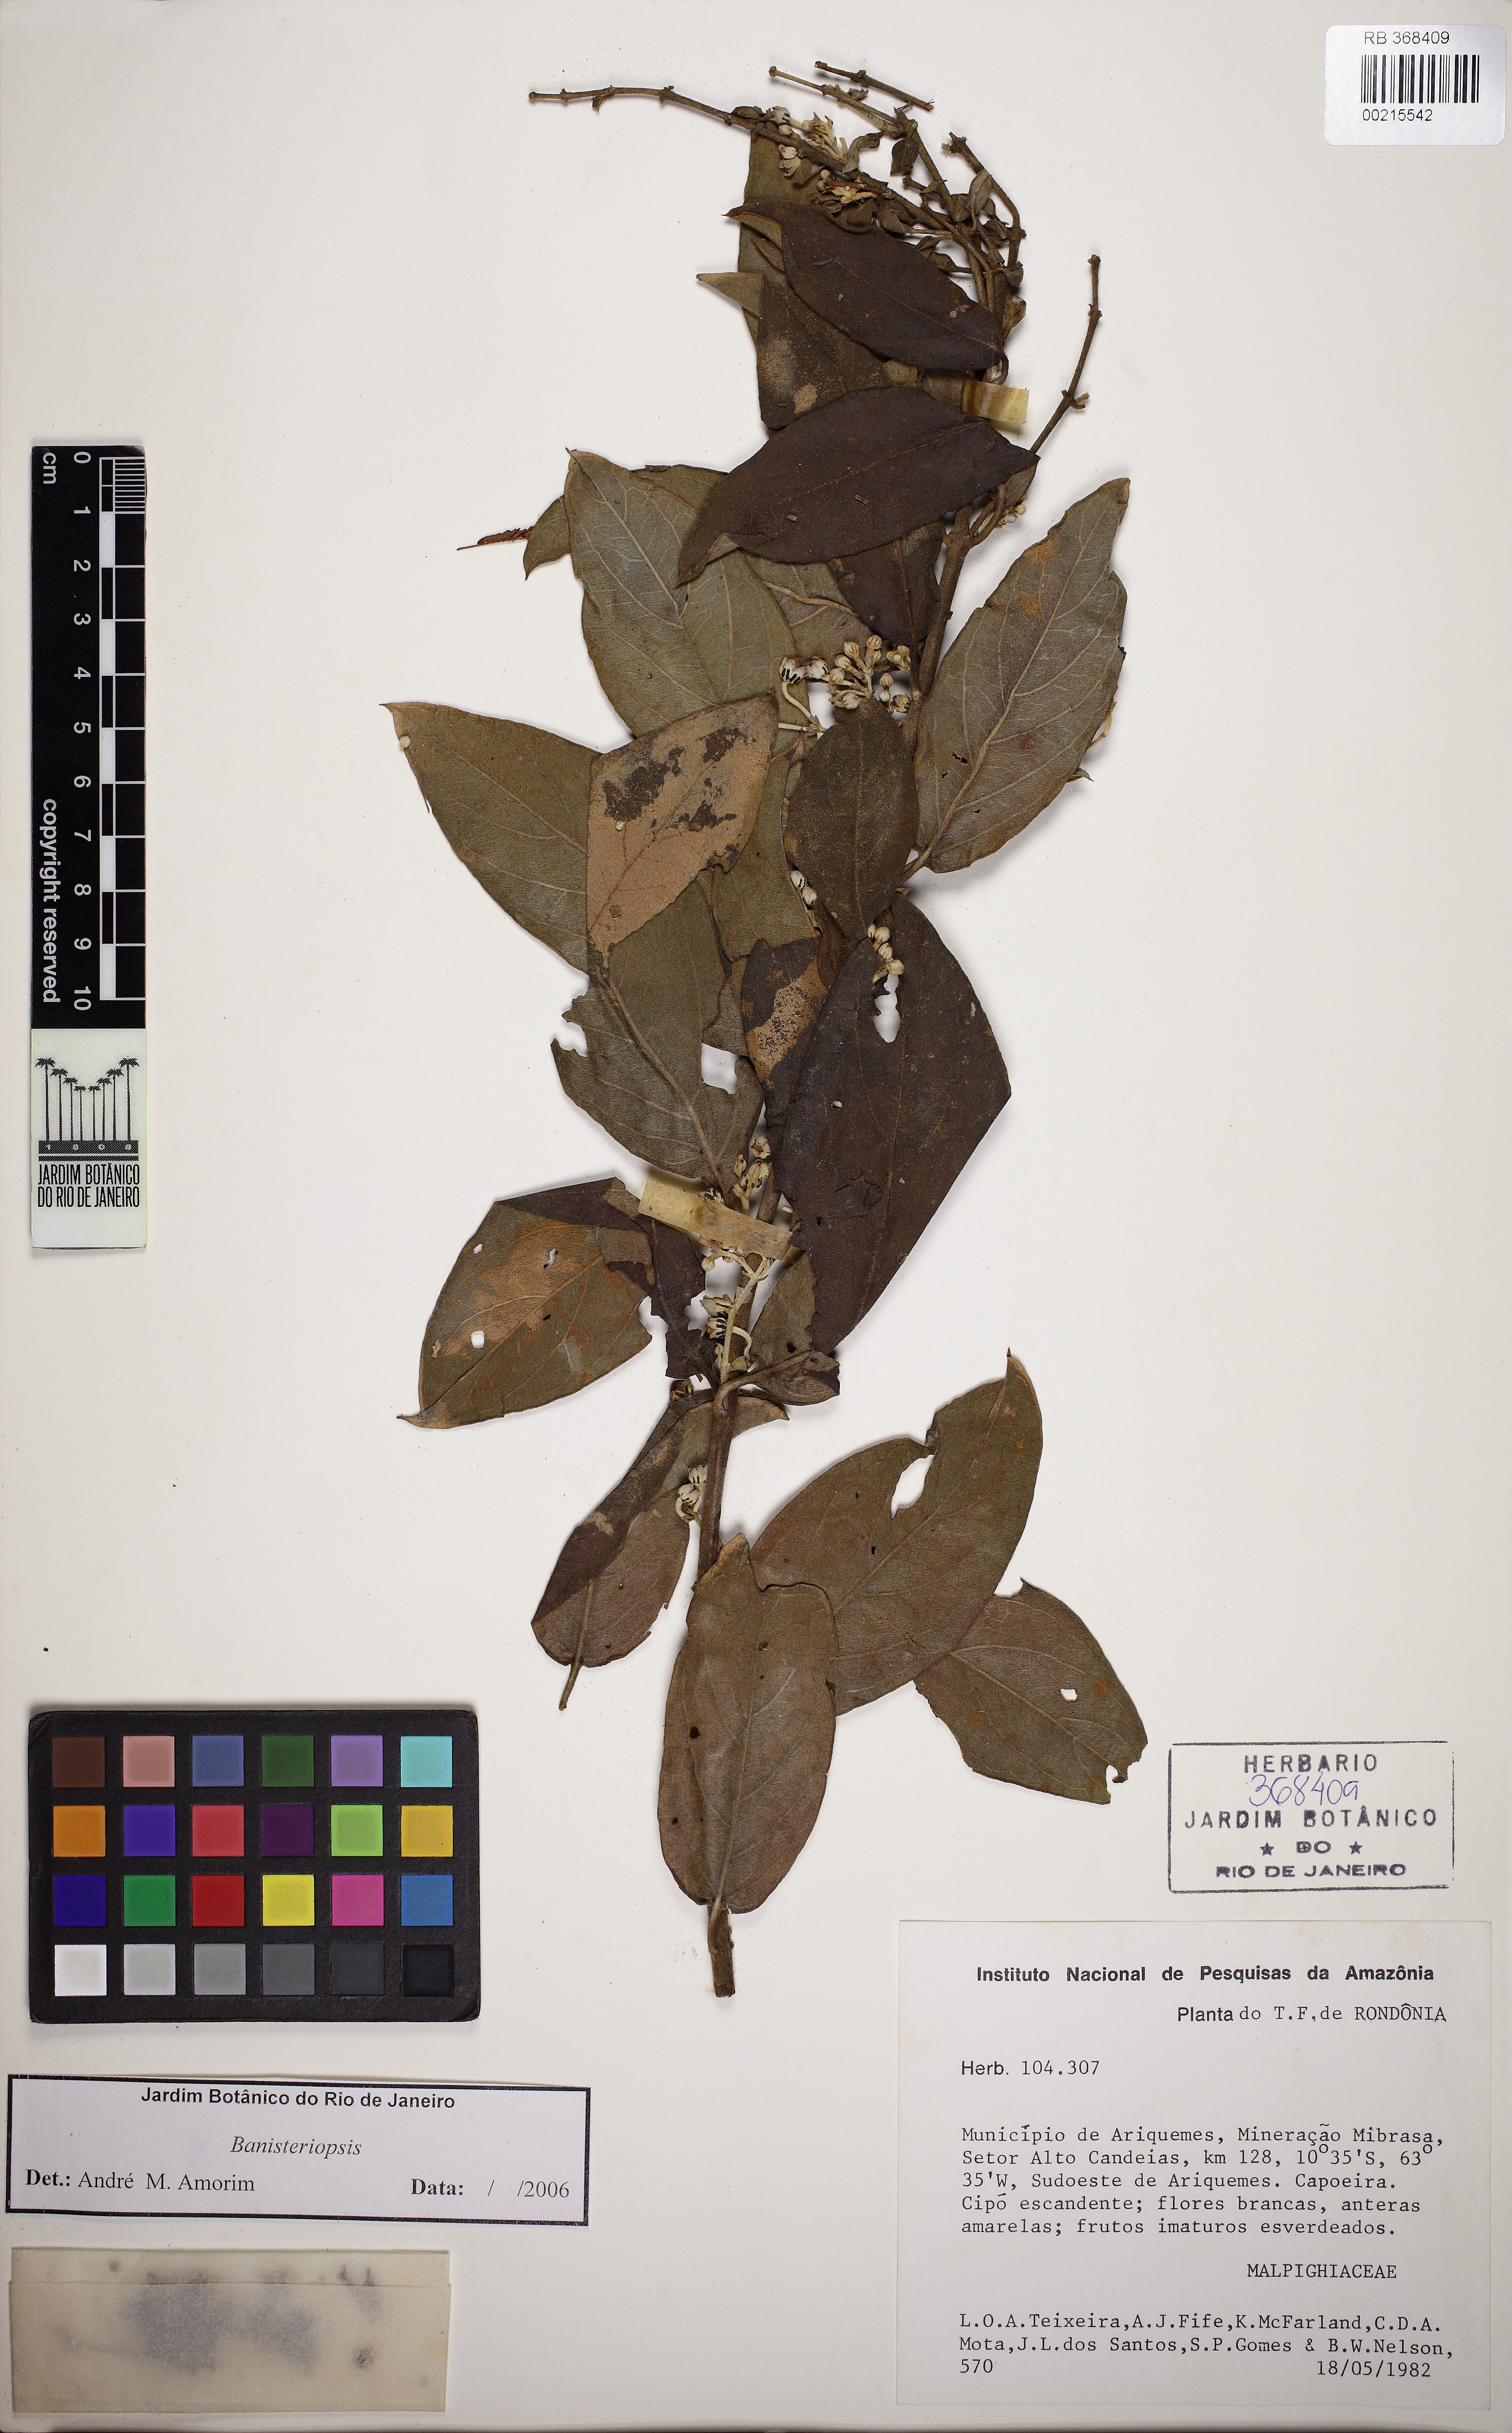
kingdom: Plantae
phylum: Tracheophyta
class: Magnoliopsida
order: Malpighiales
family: Malpighiaceae
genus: Banisteriopsis
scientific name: Banisteriopsis
